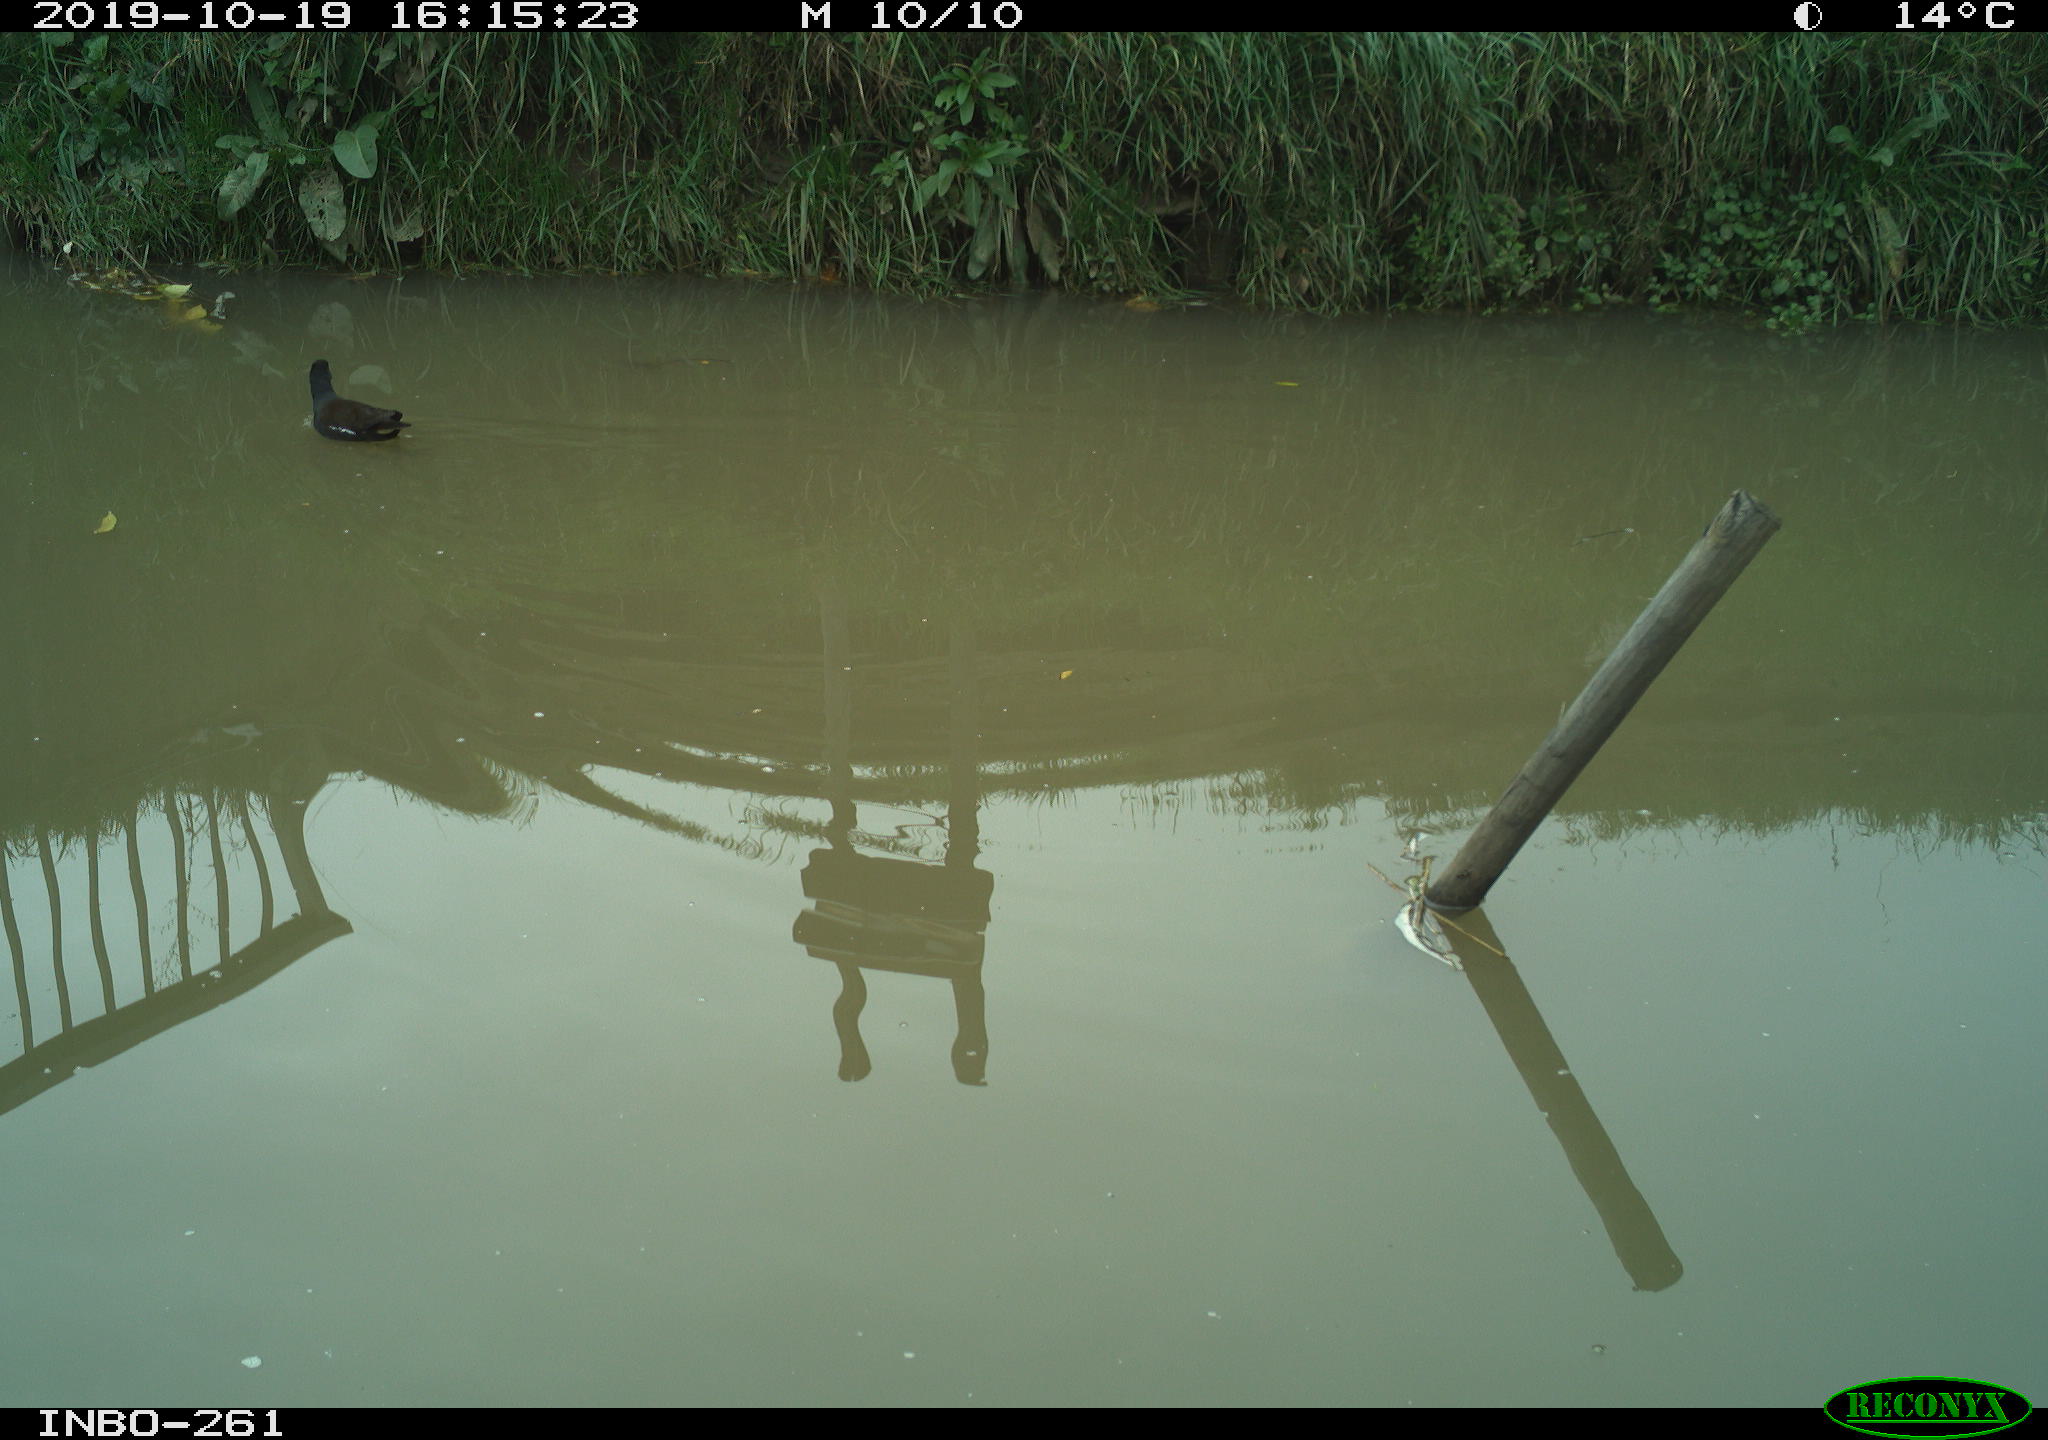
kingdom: Animalia
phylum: Chordata
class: Aves
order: Gruiformes
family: Rallidae
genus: Gallinula
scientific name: Gallinula chloropus
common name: Common moorhen
